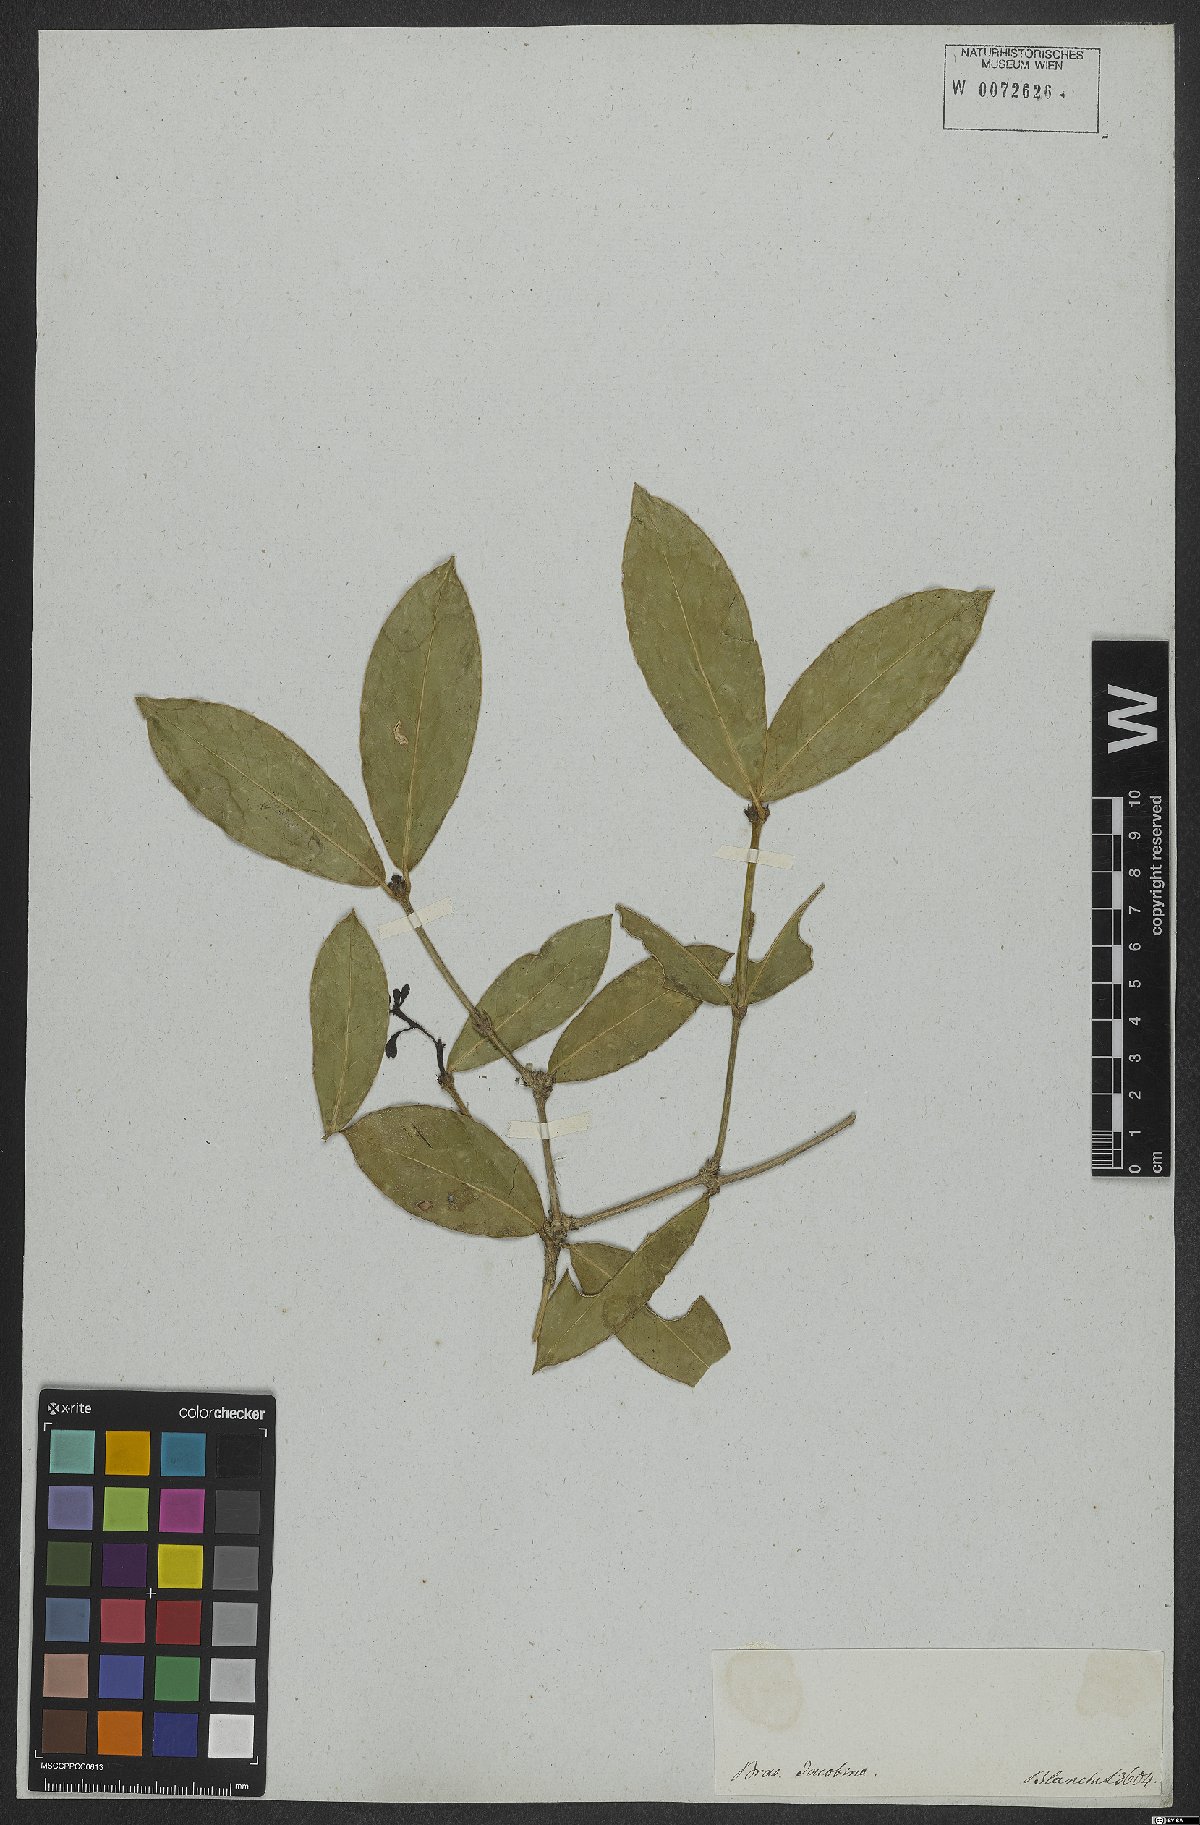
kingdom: Plantae
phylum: Tracheophyta
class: Magnoliopsida
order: Gentianales
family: Rubiaceae
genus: Rudgea
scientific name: Rudgea erioloba
